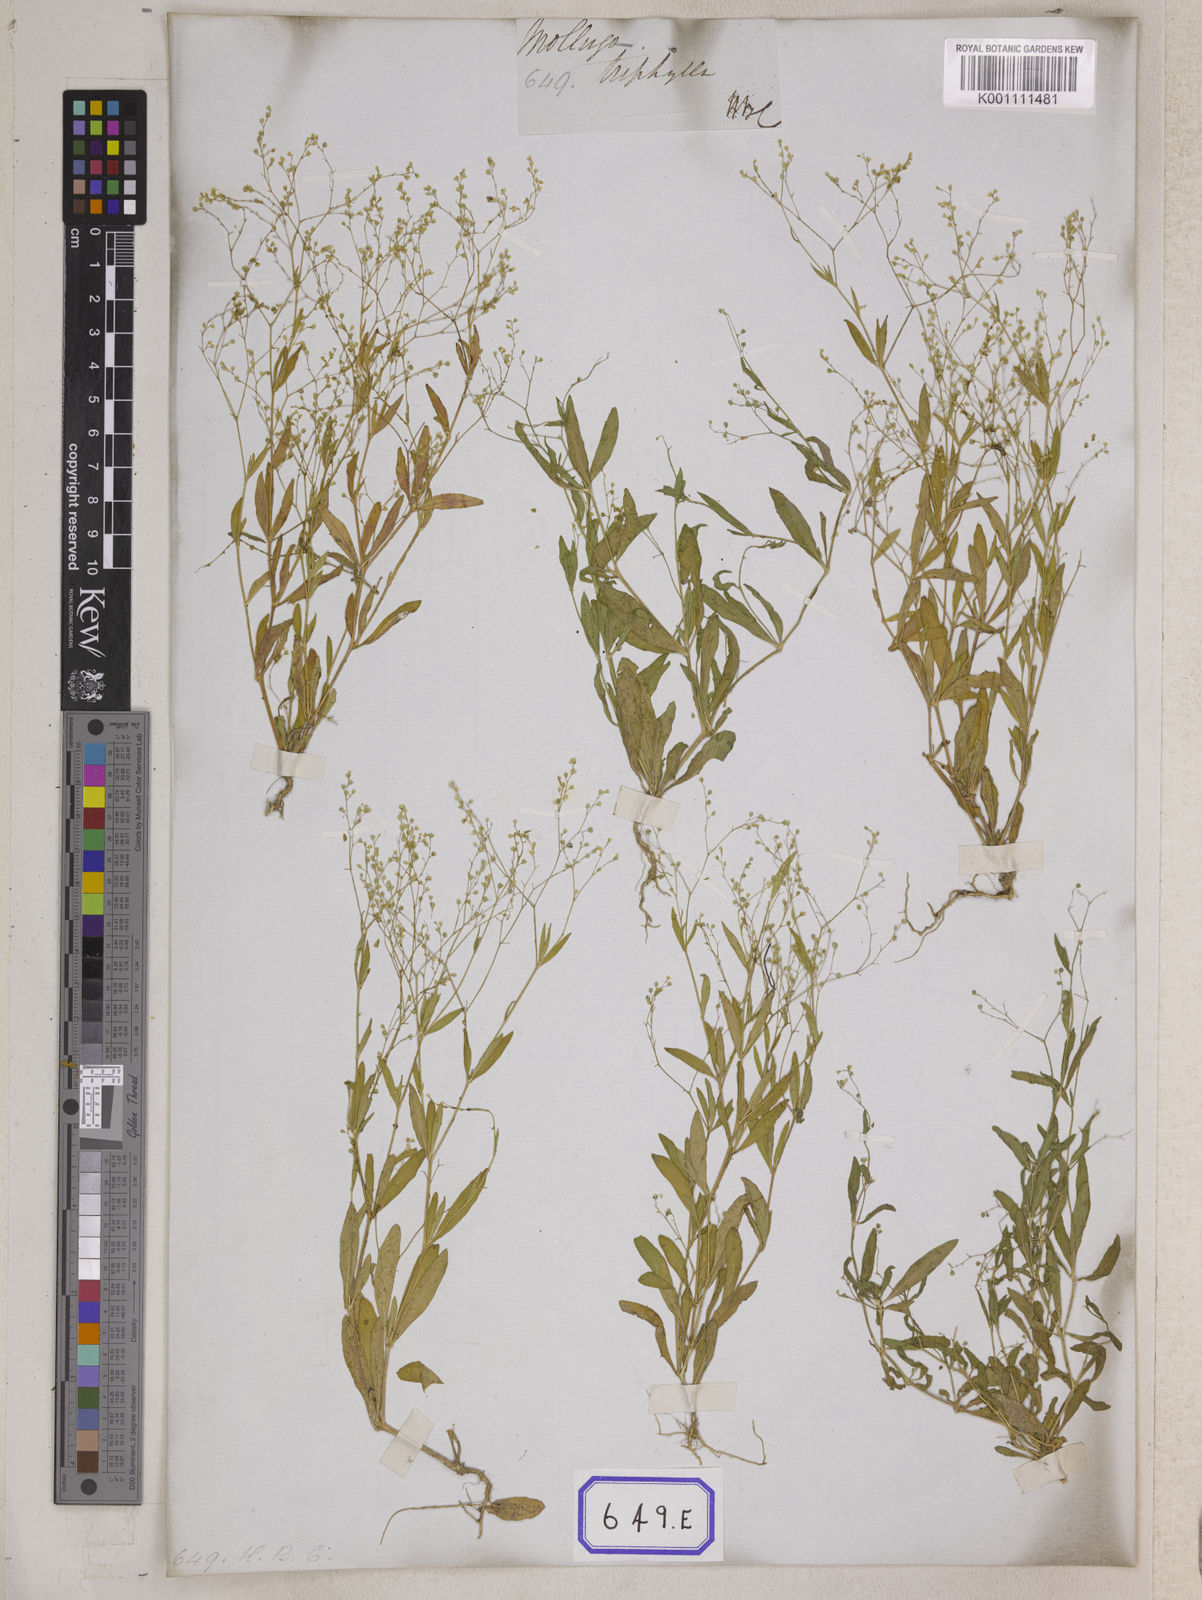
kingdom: Plantae
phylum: Tracheophyta
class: Magnoliopsida
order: Caryophyllales
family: Molluginaceae
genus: Trigastrotheca
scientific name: Trigastrotheca stricta
